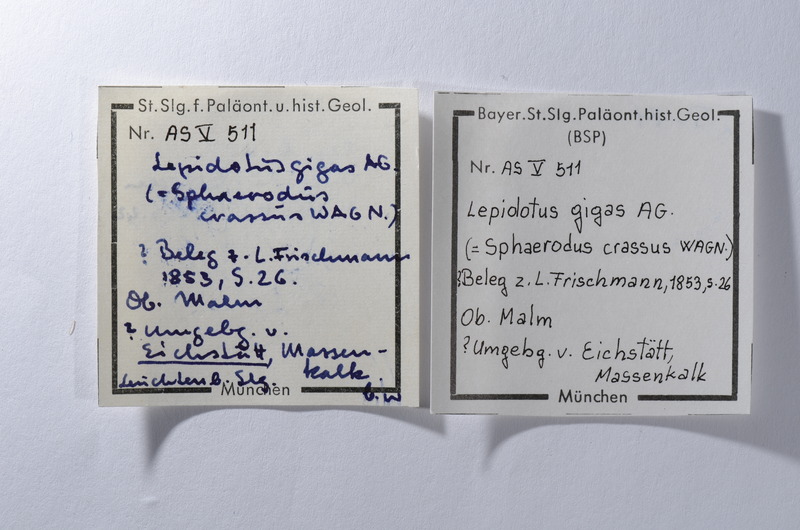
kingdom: Animalia
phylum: Chordata
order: Lepisosteiformes
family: Lepidotidae
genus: Lepidotes
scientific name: Lepidotes gigas
